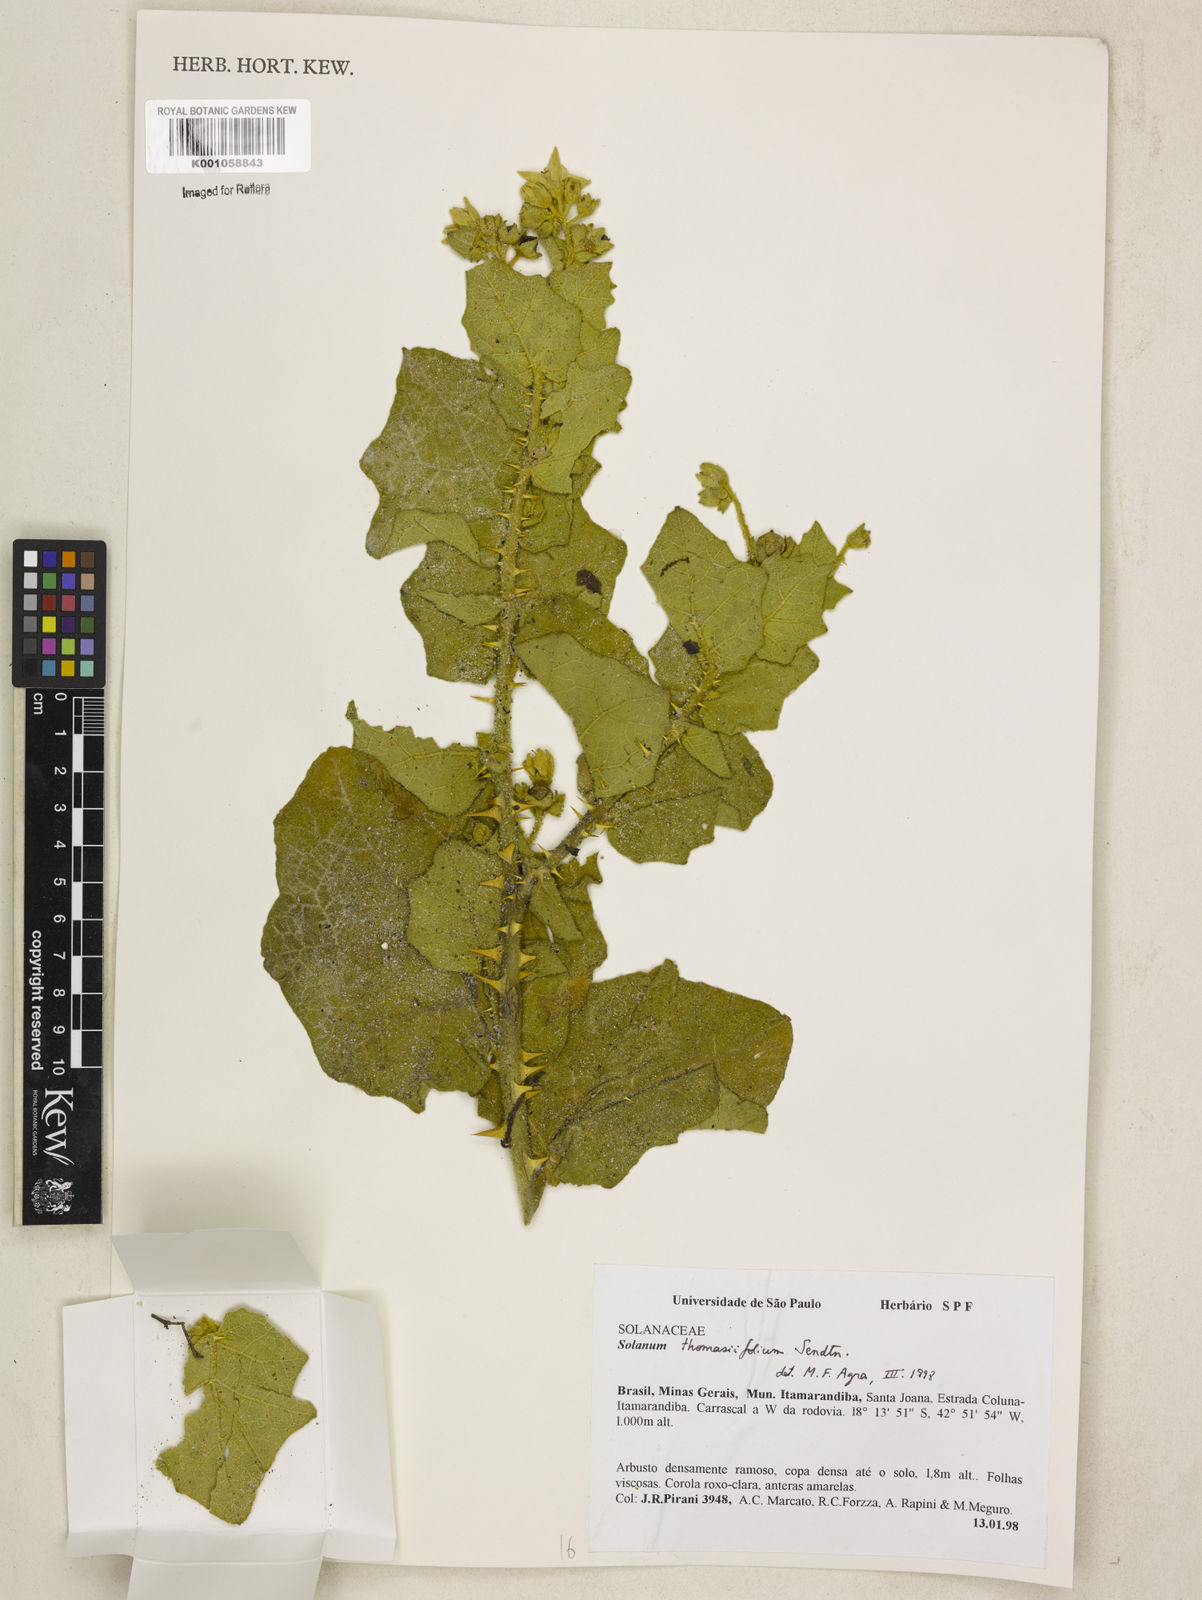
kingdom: Plantae
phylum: Tracheophyta
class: Magnoliopsida
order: Solanales
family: Solanaceae
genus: Solanum
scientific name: Solanum thomasiifolium
